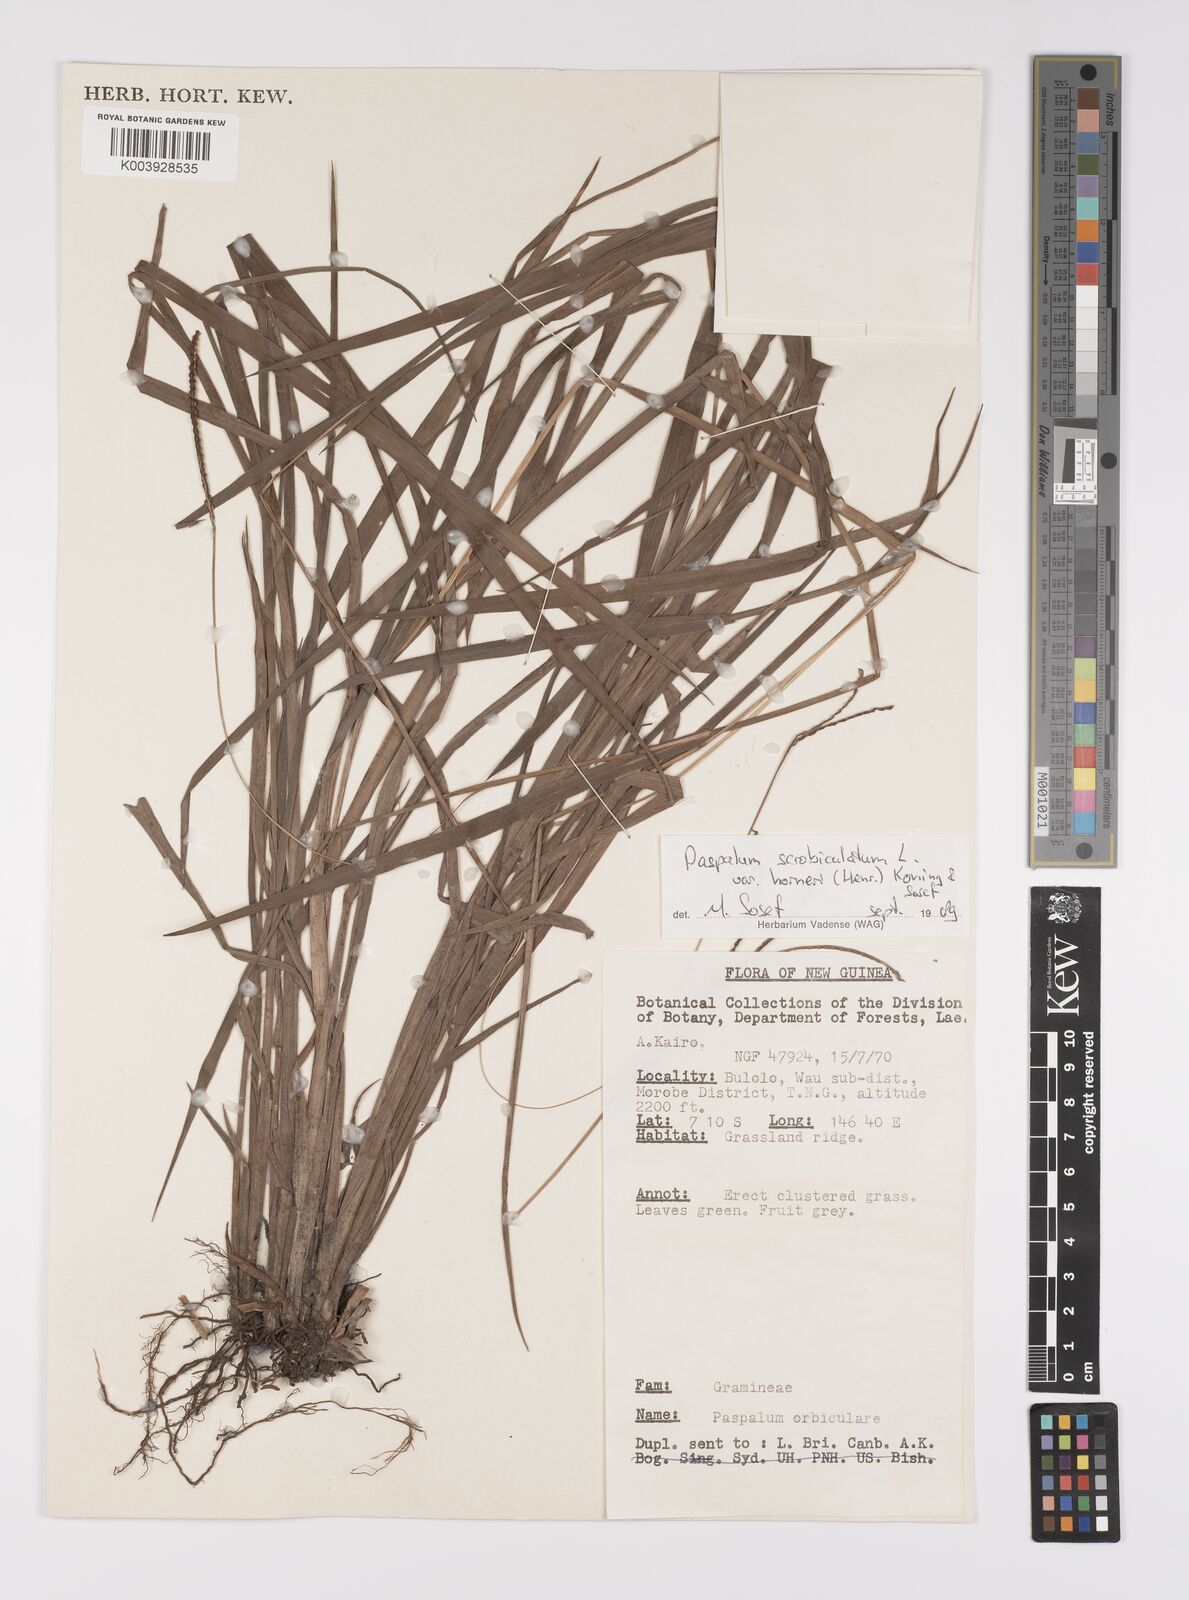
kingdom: Plantae
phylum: Tracheophyta
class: Liliopsida
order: Poales
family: Poaceae
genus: Paspalum
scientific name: Paspalum scrobiculatum
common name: Kodo millet
